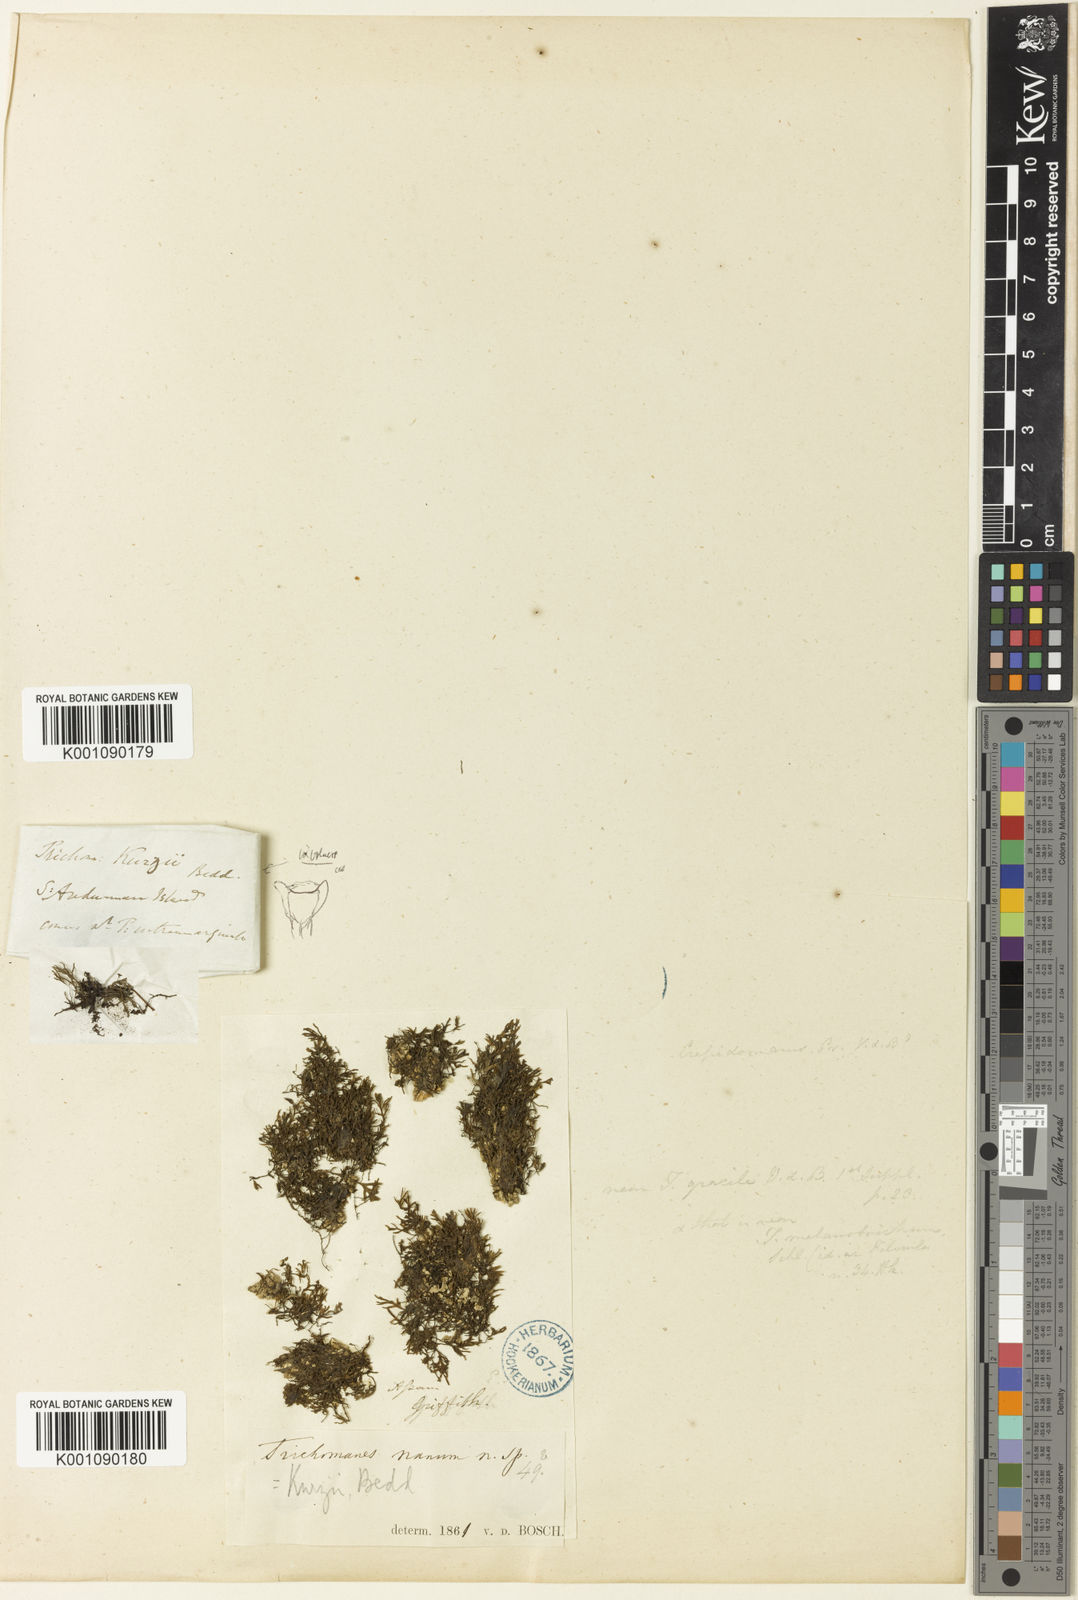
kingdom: Plantae
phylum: Tracheophyta
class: Polypodiopsida
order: Hymenophyllales
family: Hymenophyllaceae
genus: Crepidomanes
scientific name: Crepidomanes kurzii
